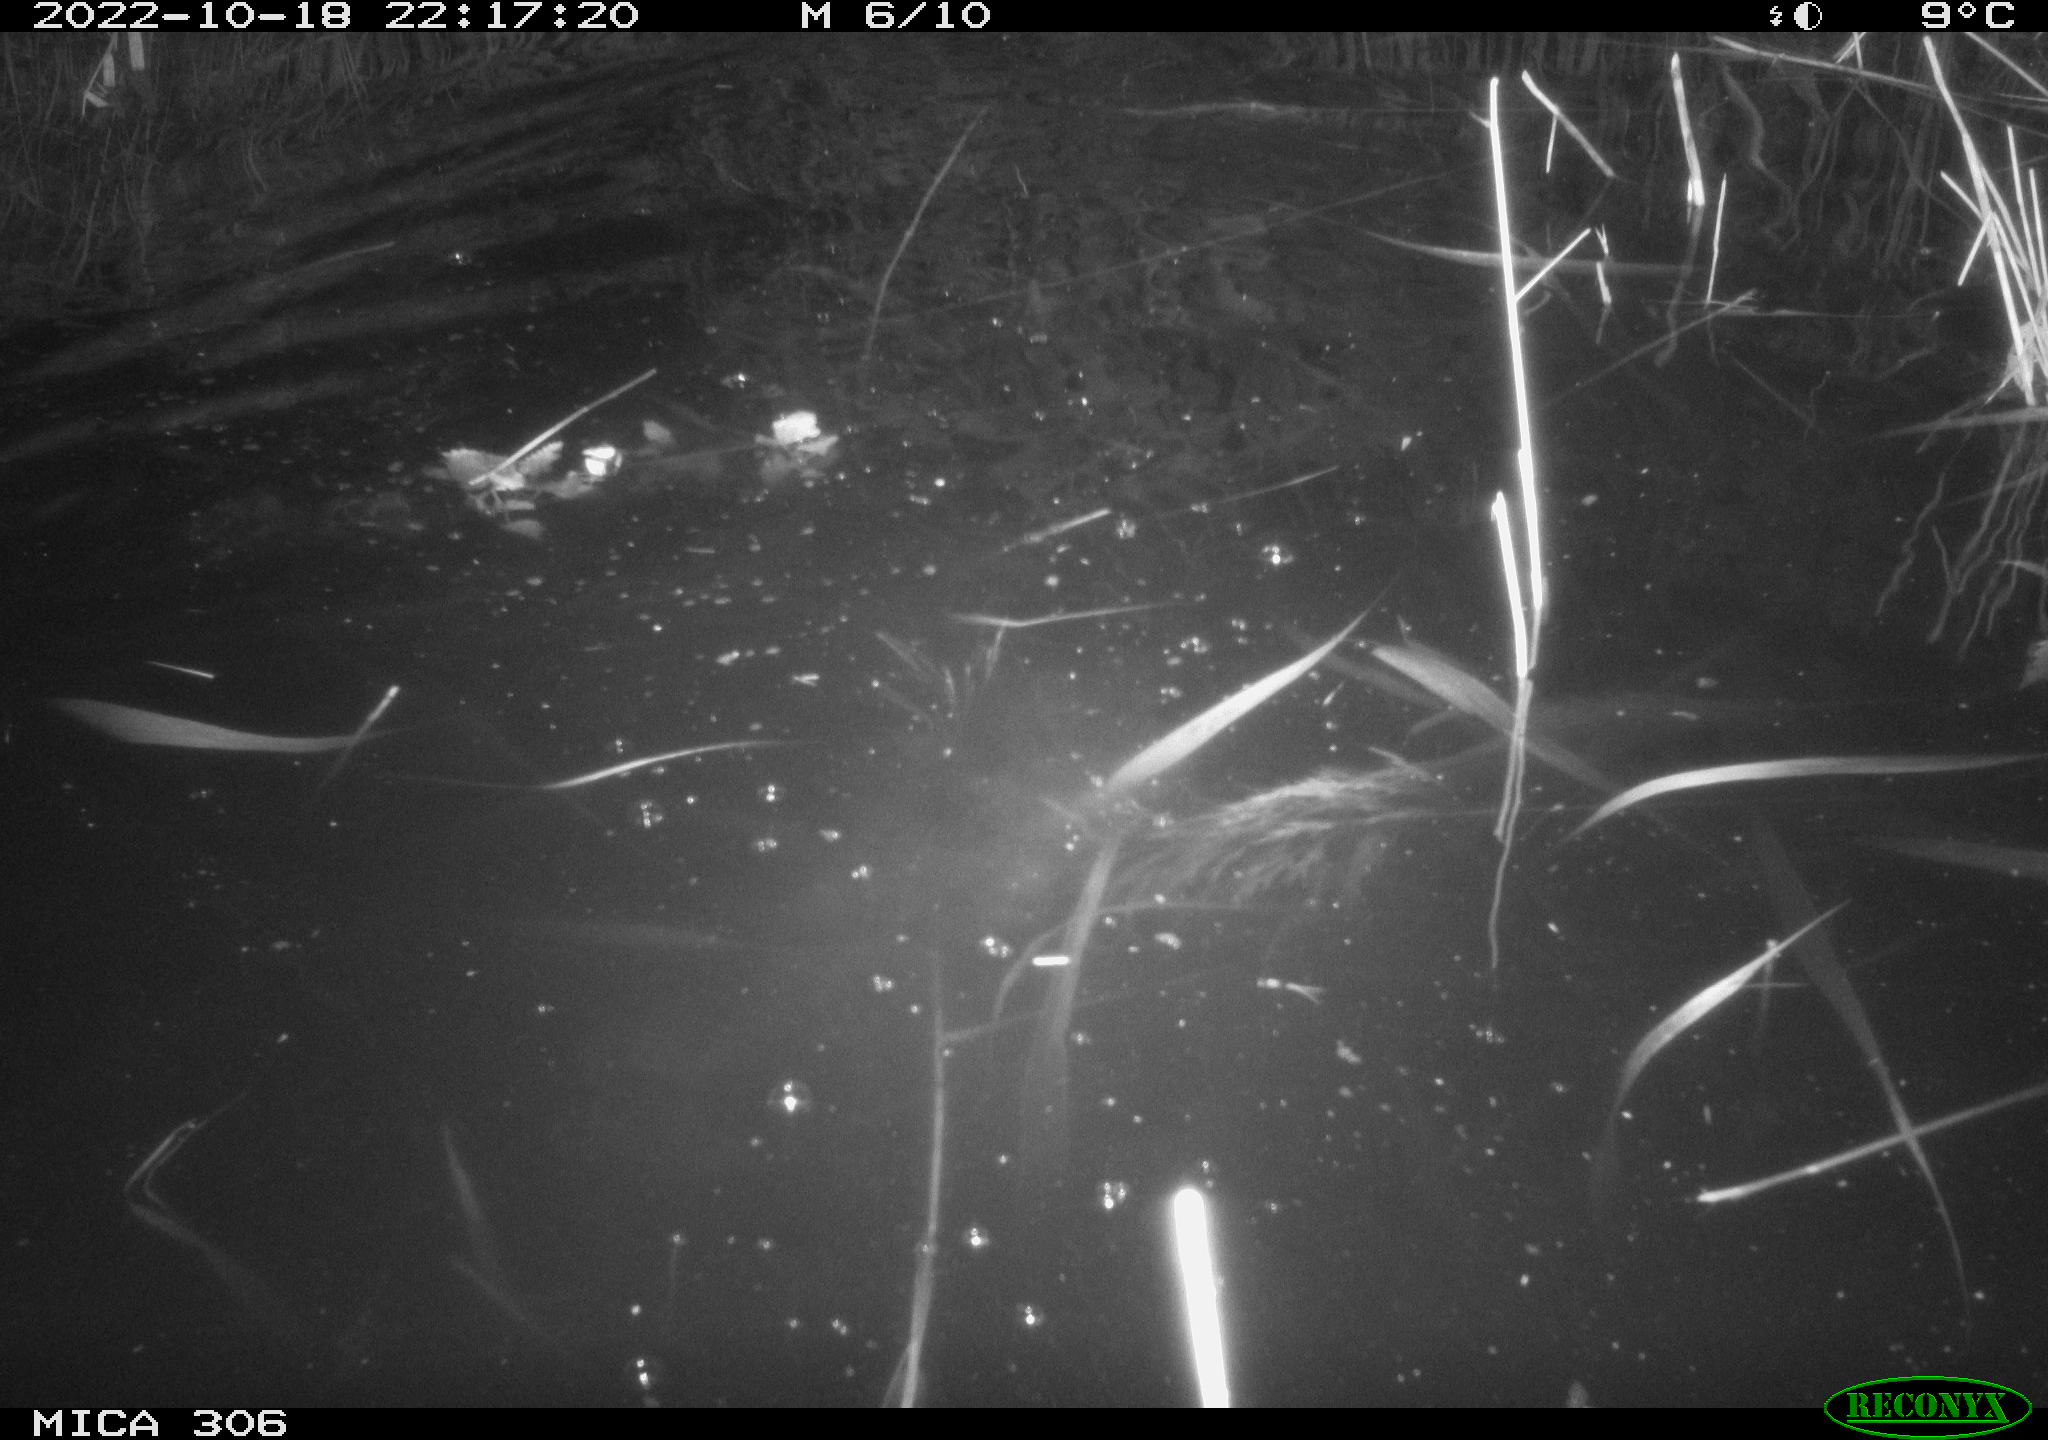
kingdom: Animalia
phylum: Chordata
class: Mammalia
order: Rodentia
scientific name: Rodentia
